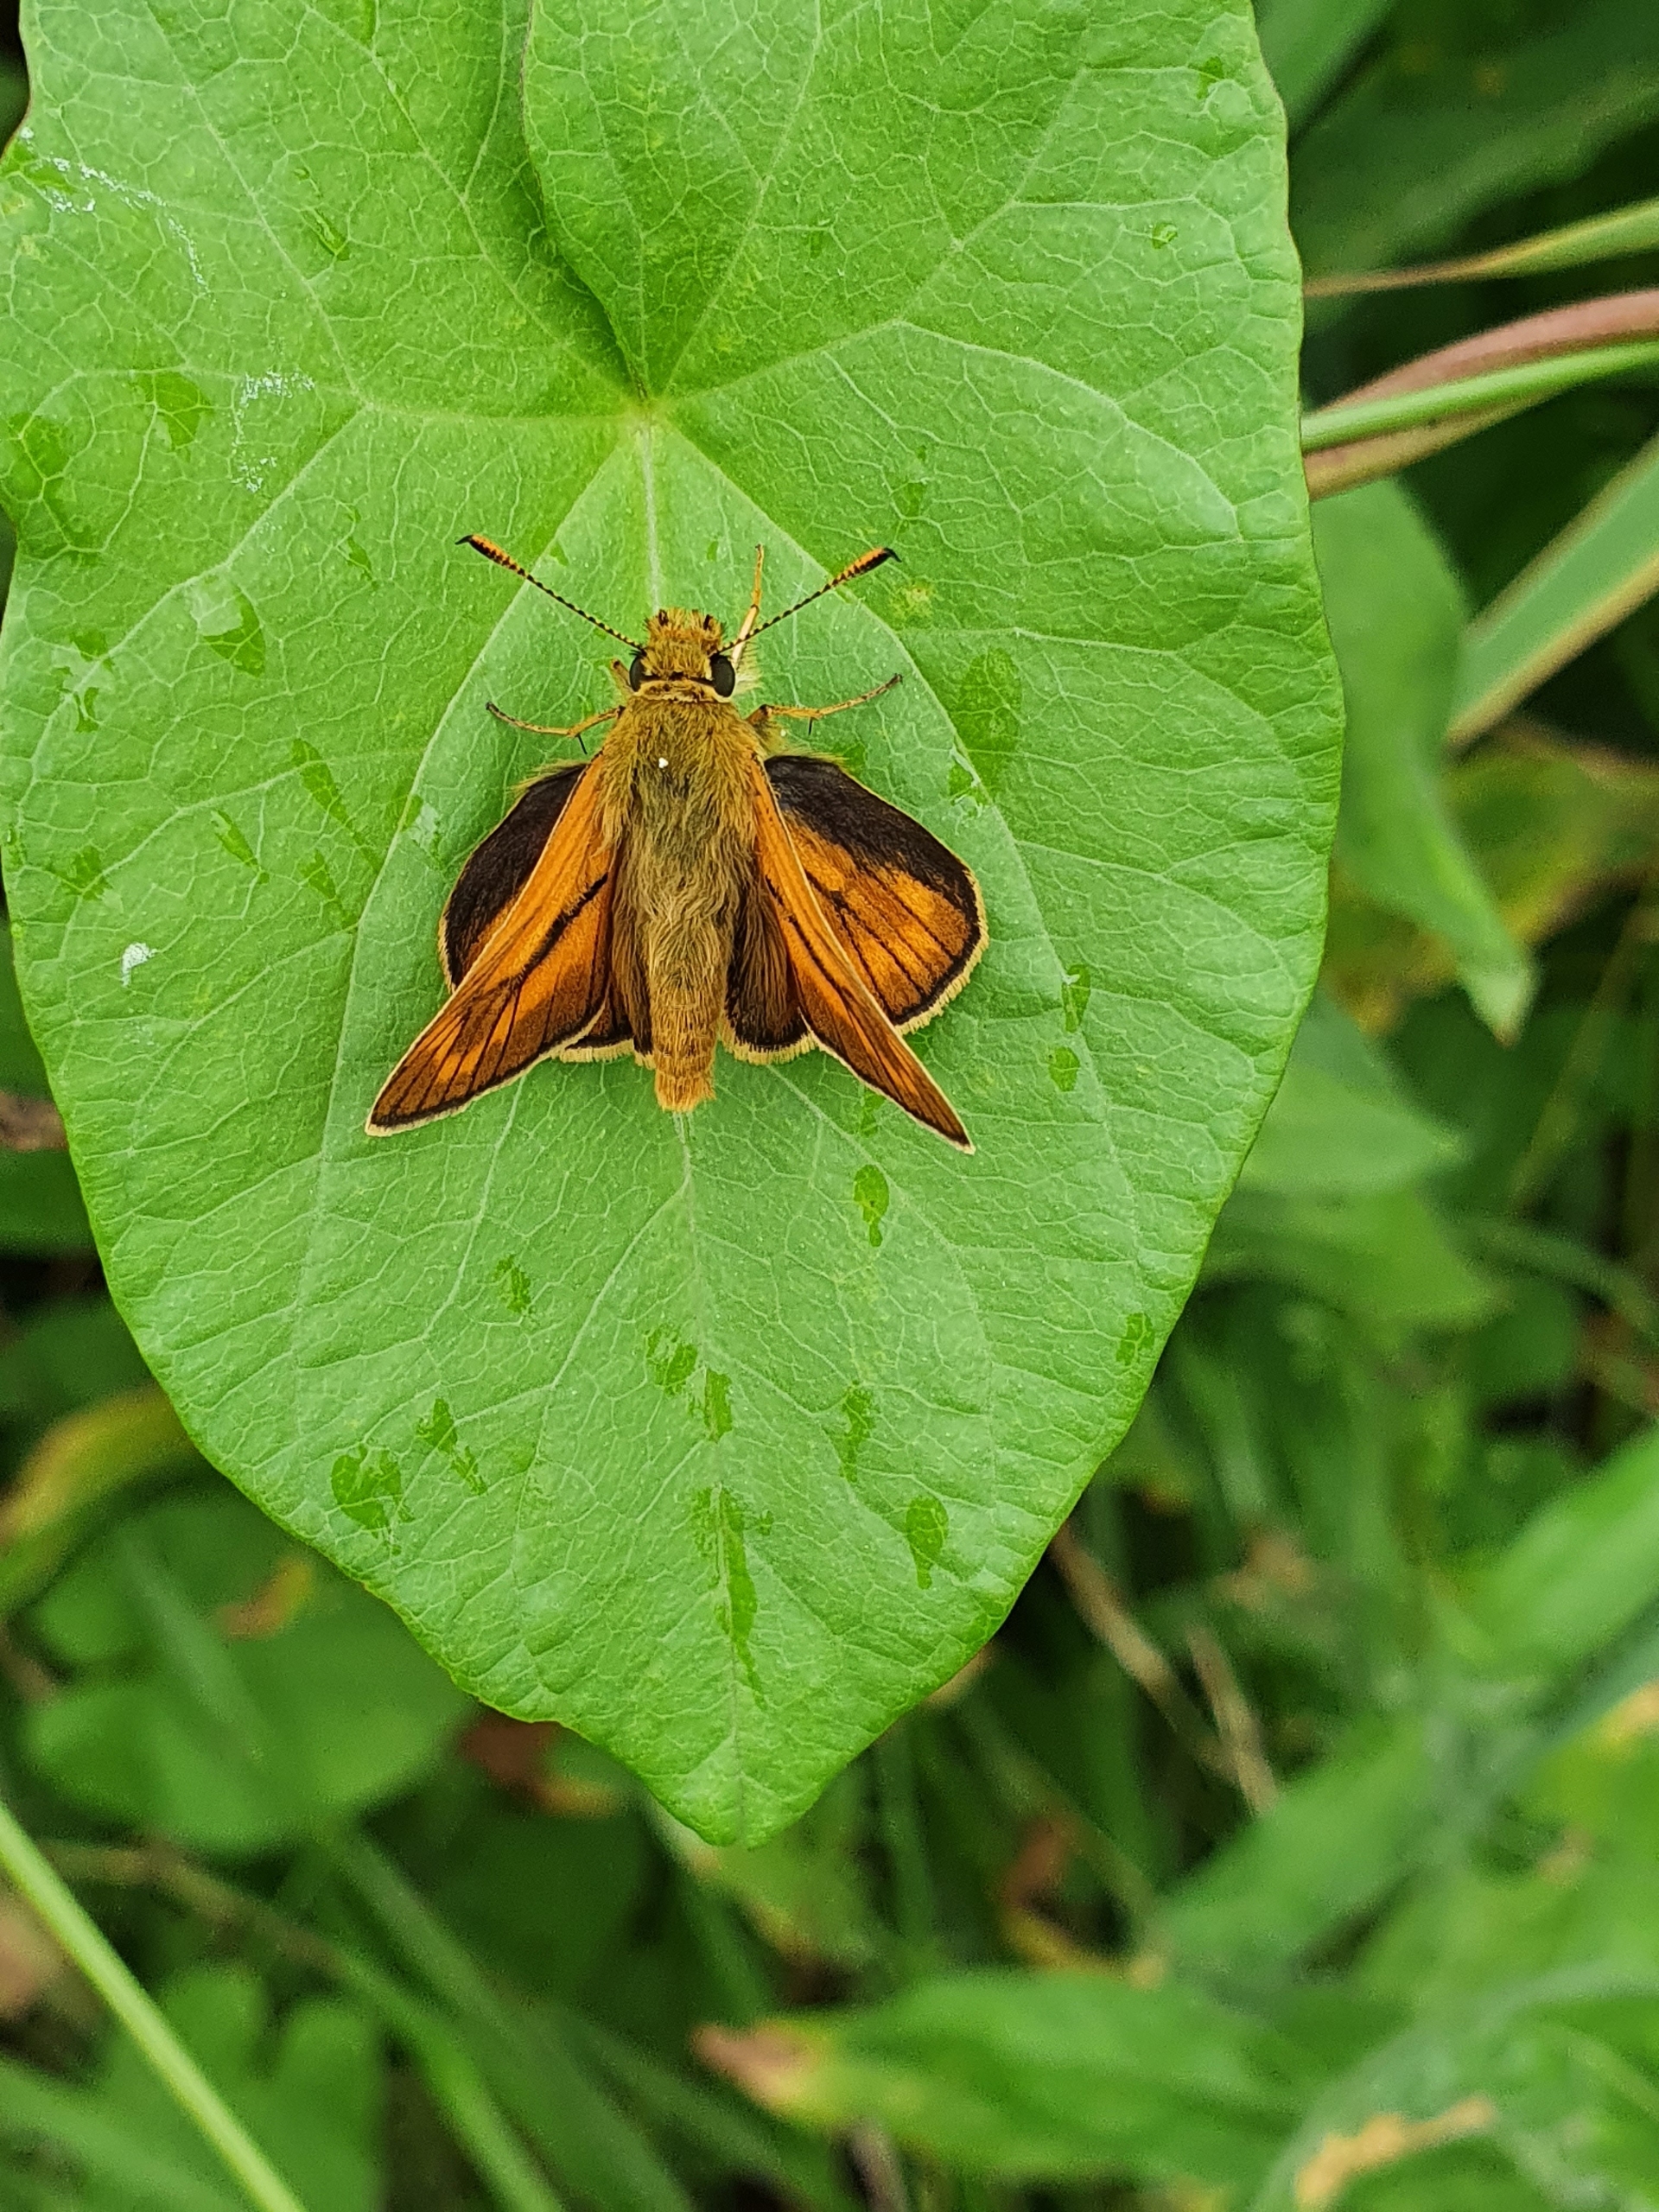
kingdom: Animalia
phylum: Arthropoda
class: Insecta
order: Lepidoptera
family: Hesperiidae
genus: Ochlodes
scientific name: Ochlodes venata
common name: Stor bredpande
